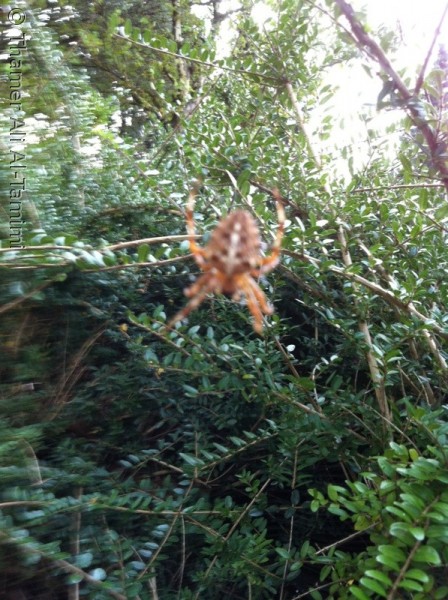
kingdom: Animalia
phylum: Arthropoda
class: Arachnida
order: Araneae
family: Araneidae
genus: Araneus
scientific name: Araneus diadematus
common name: Korsedderkop
